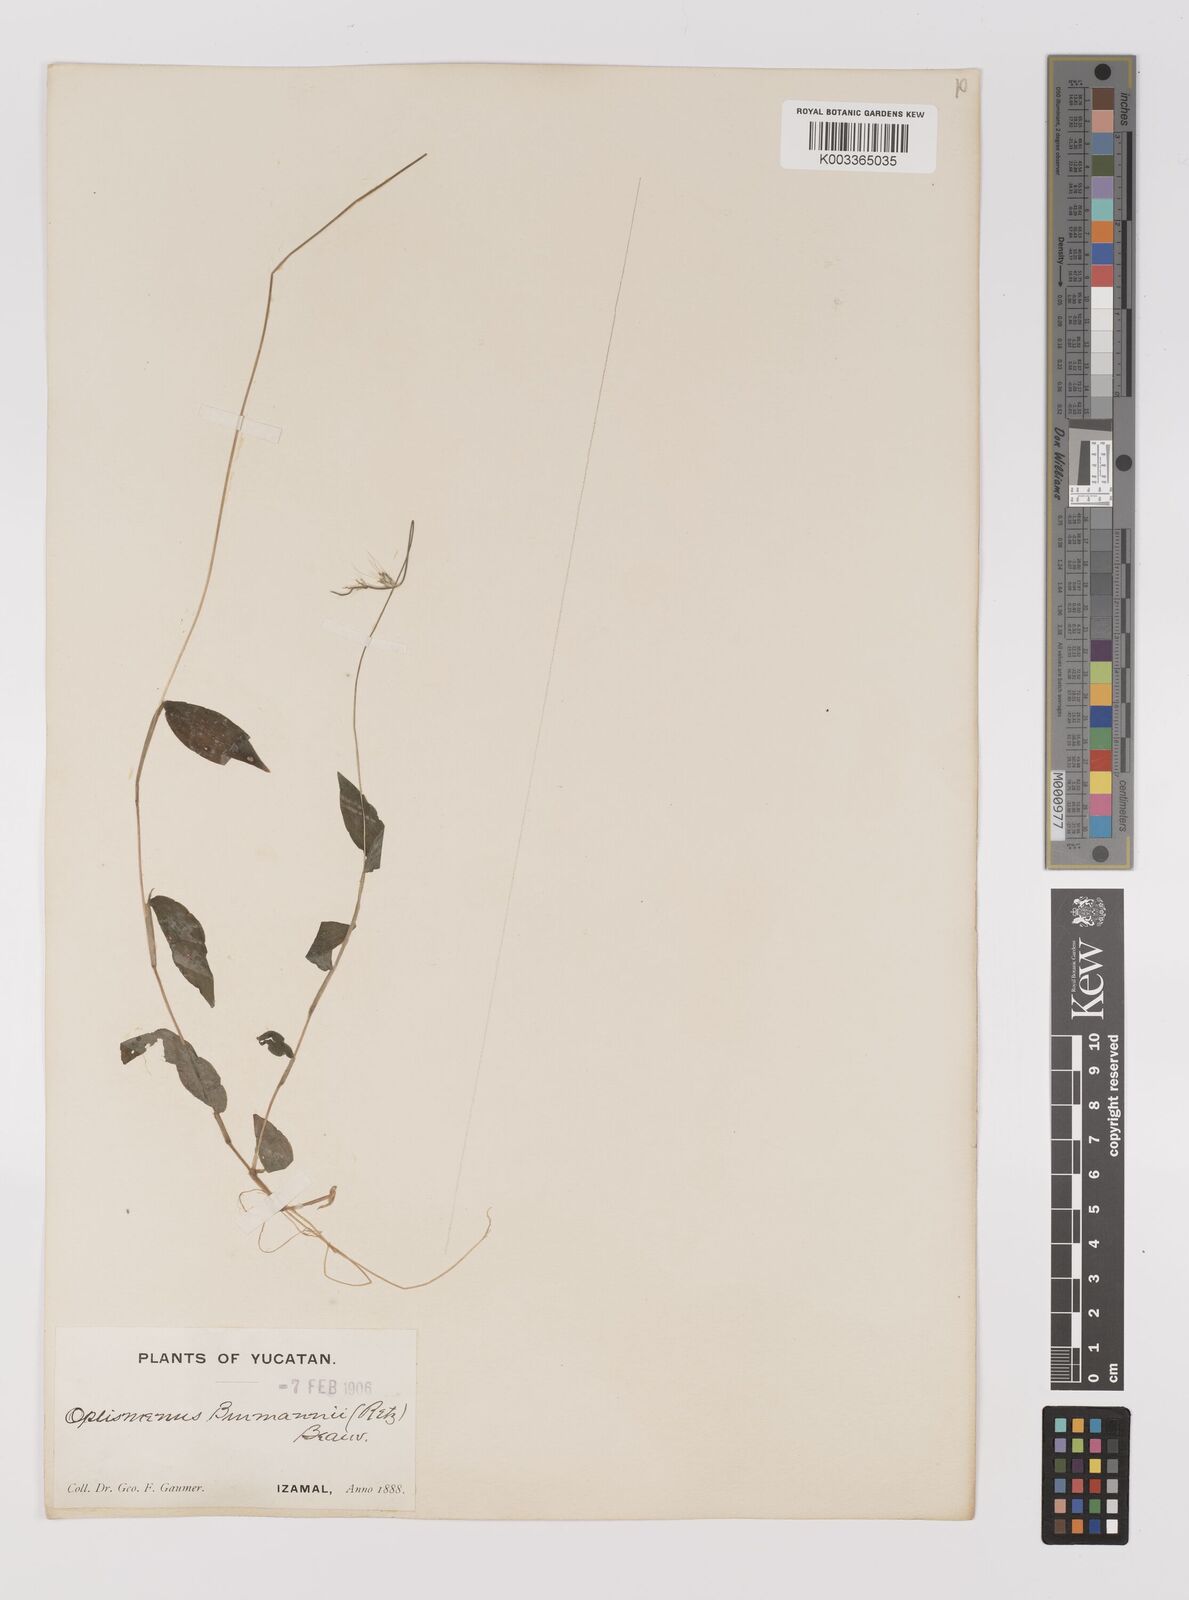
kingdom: Plantae
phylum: Tracheophyta
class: Liliopsida
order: Poales
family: Poaceae
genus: Oplismenus
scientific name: Oplismenus burmanni
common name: Burmann's basketgrass
